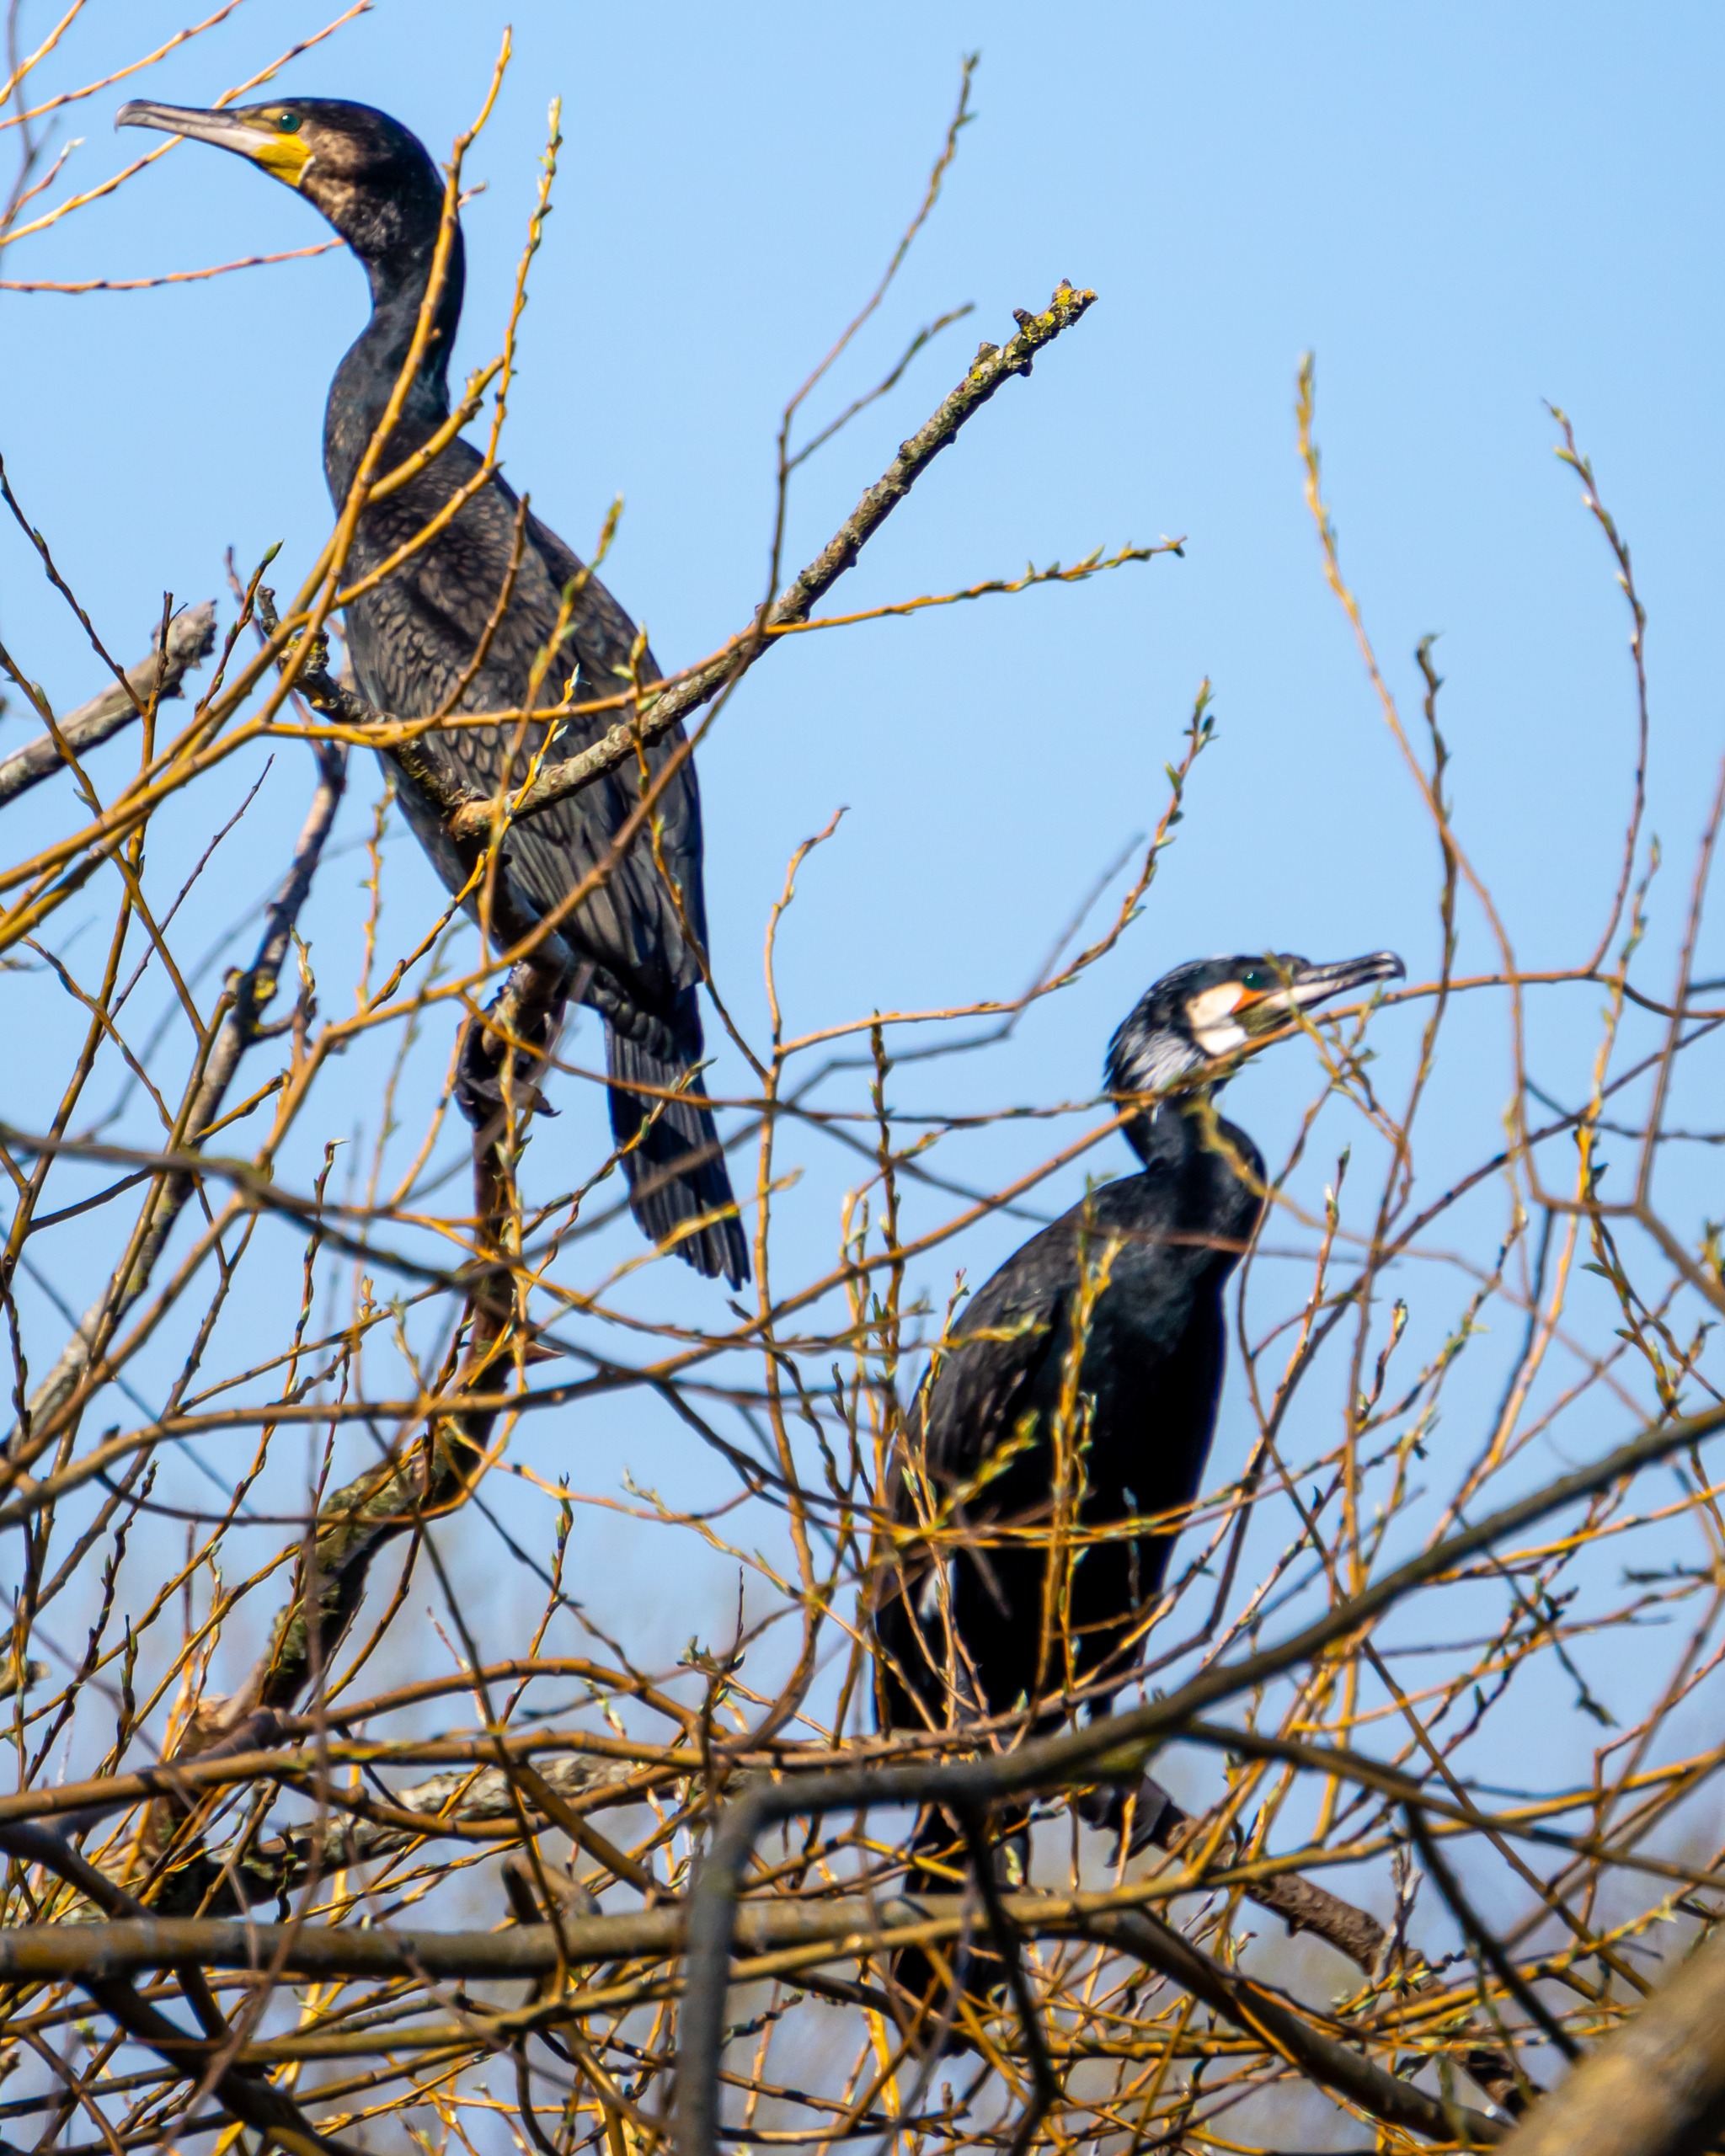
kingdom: Animalia
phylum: Chordata
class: Aves
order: Suliformes
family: Phalacrocoracidae
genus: Phalacrocorax
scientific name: Phalacrocorax carbo
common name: Skarv
